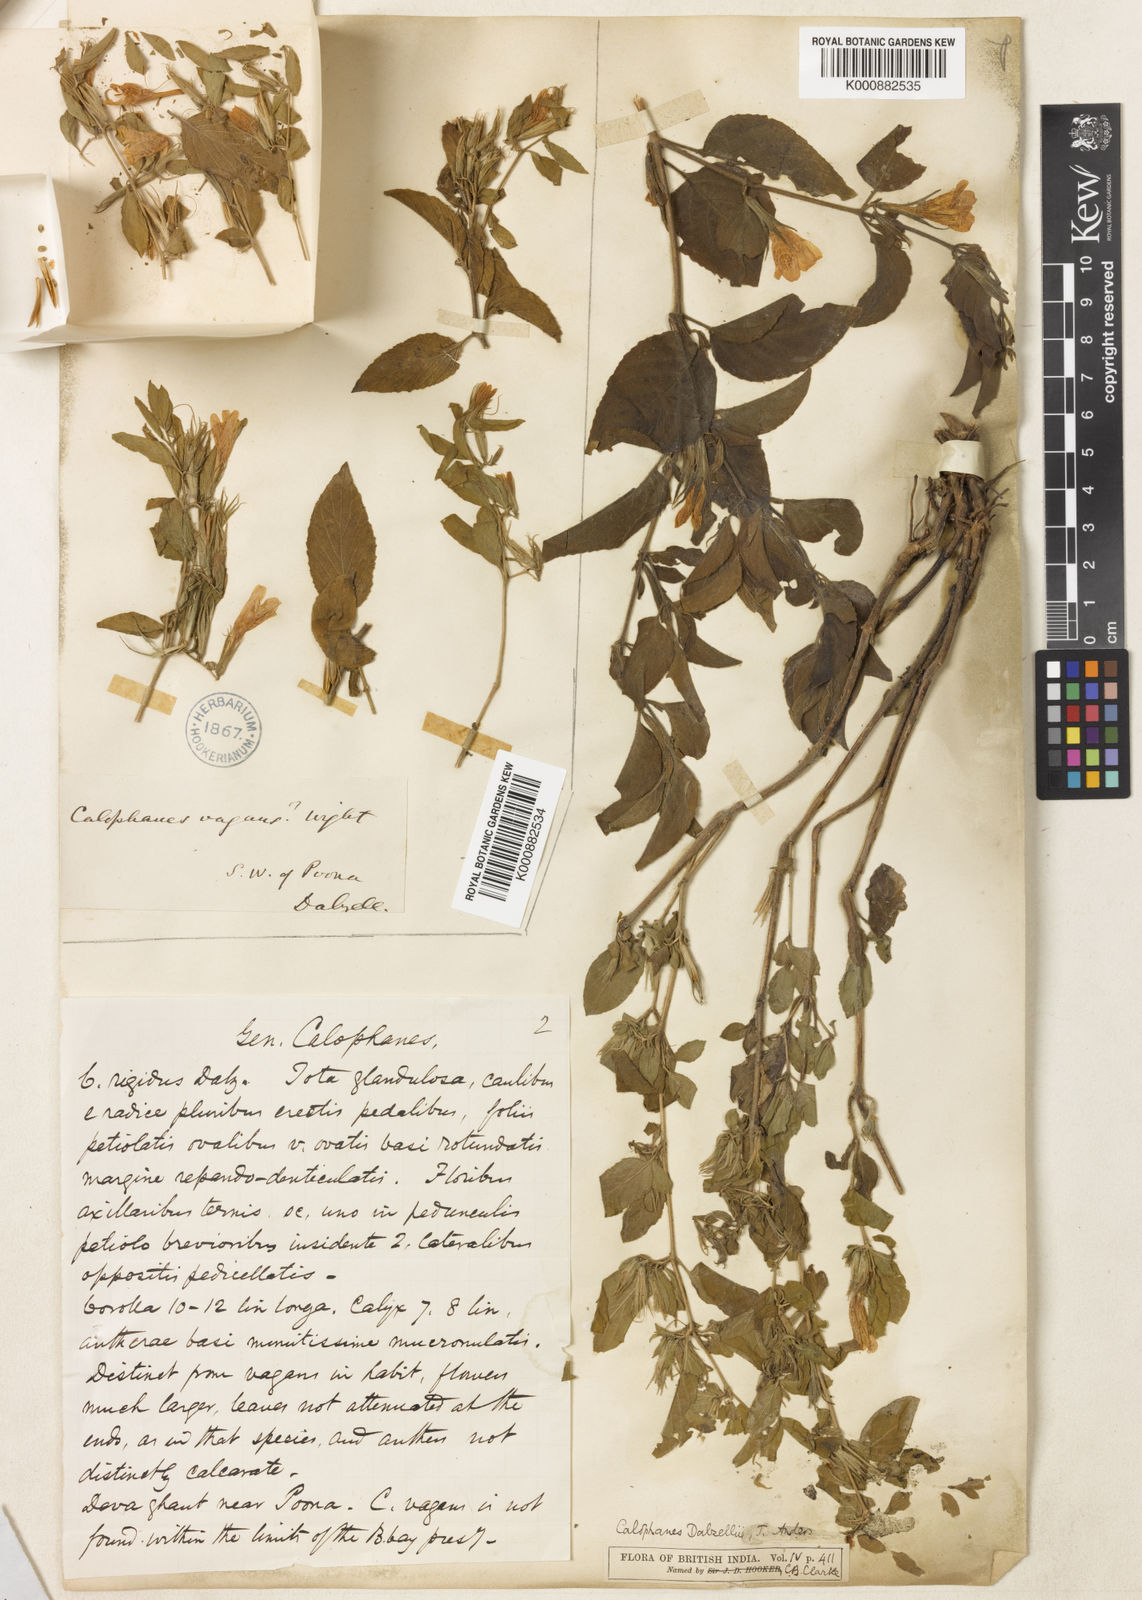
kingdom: Plantae
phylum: Tracheophyta
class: Magnoliopsida
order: Lamiales
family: Acanthaceae
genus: Dyschoriste
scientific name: Dyschoriste
